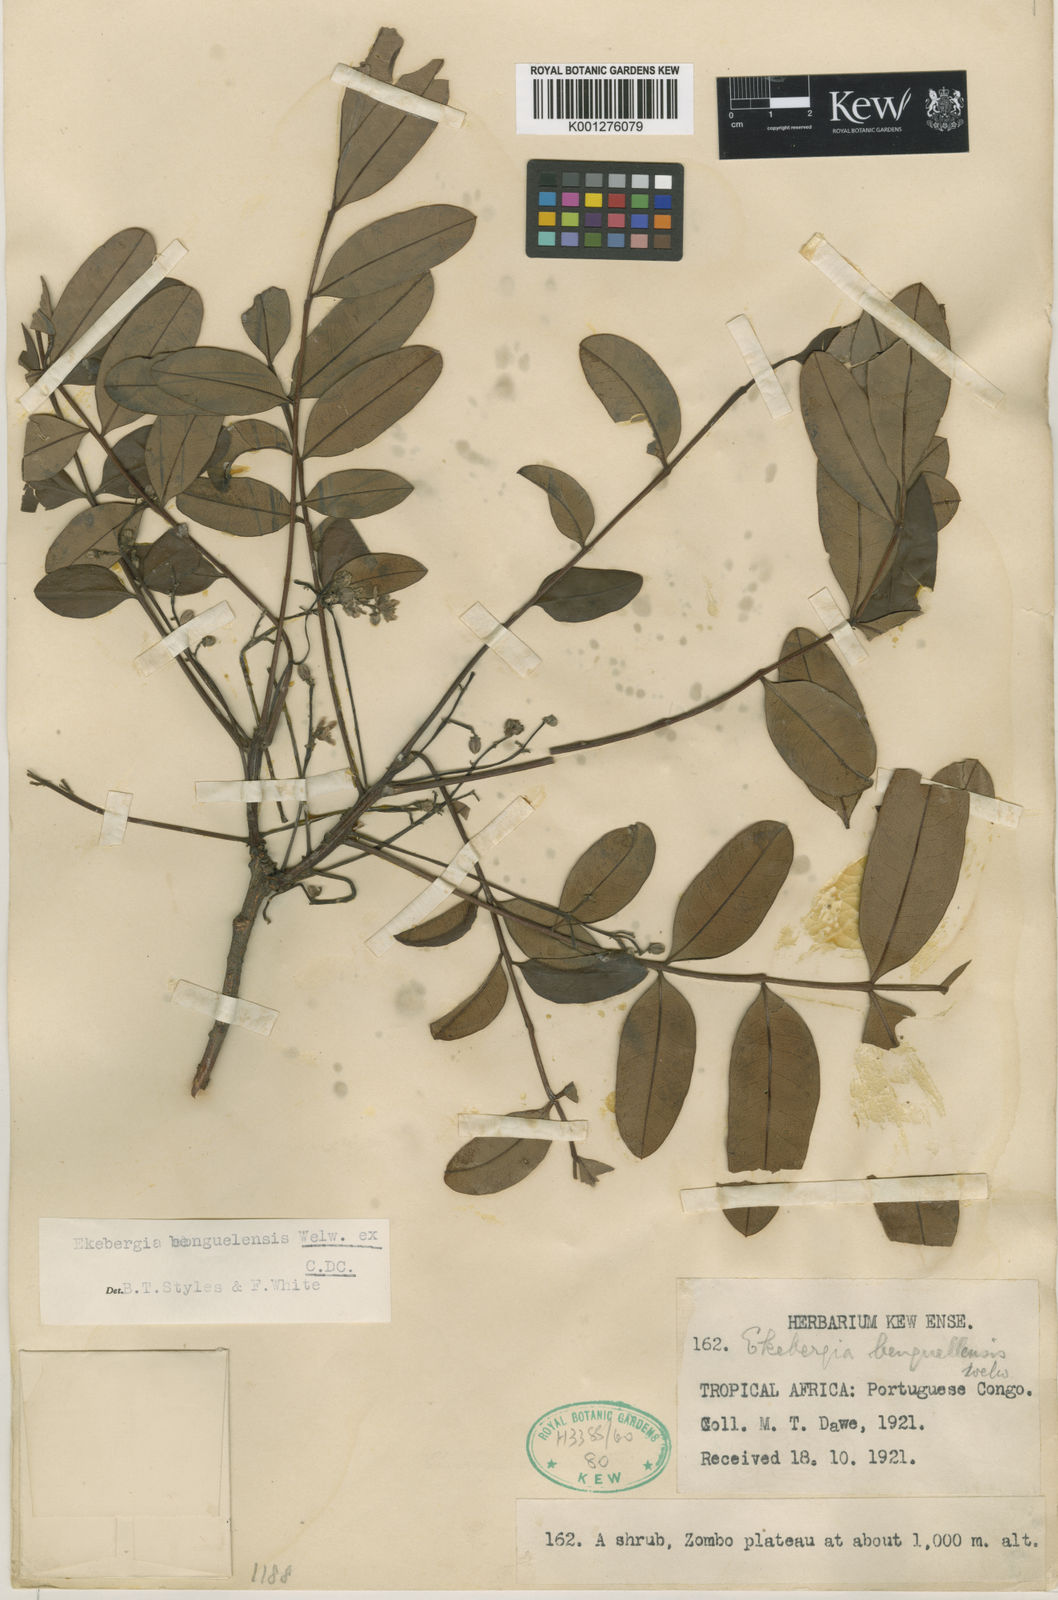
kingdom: Plantae
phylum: Tracheophyta
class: Magnoliopsida
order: Sapindales
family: Meliaceae
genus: Ekebergia
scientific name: Ekebergia benguelensis
